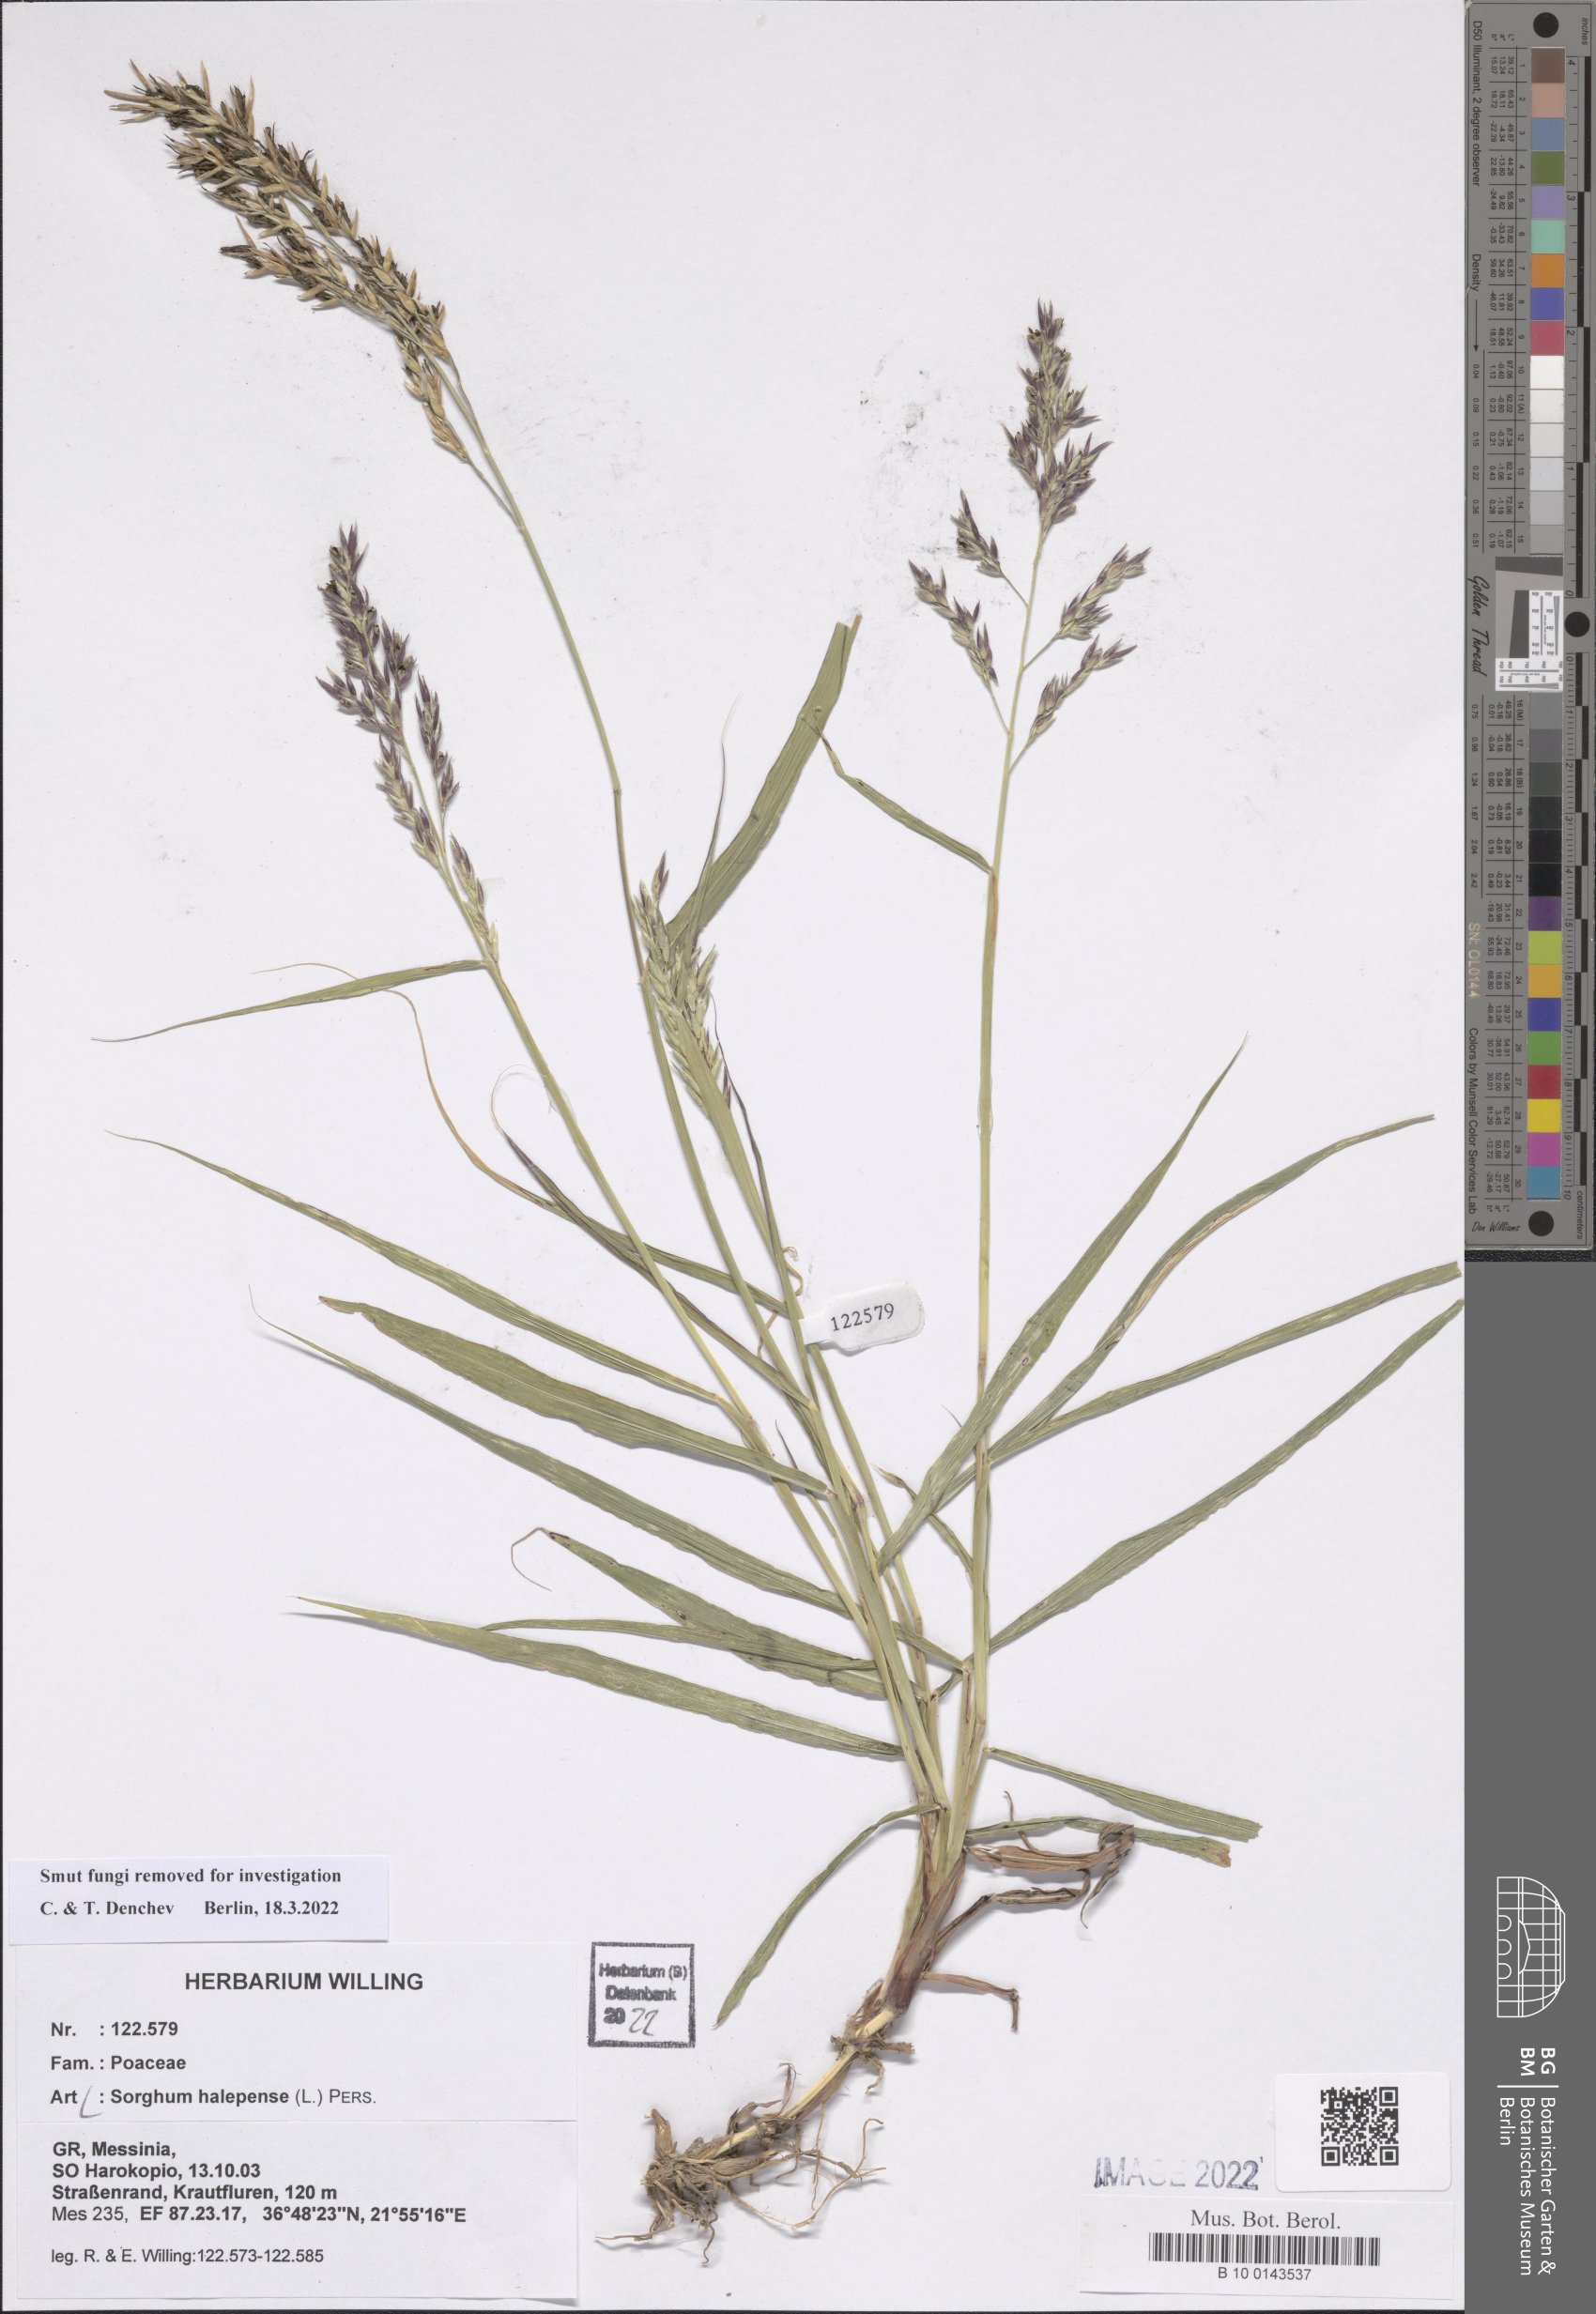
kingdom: Plantae
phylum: Tracheophyta
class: Liliopsida
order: Poales
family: Poaceae
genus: Sorghum
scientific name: Sorghum halepense
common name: Johnson-grass
